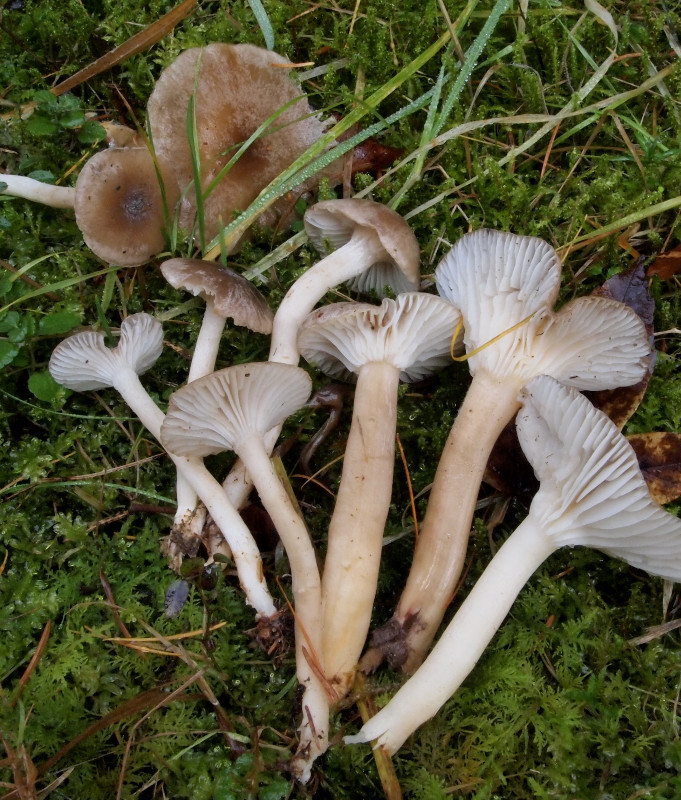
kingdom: Fungi
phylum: Basidiomycota
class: Agaricomycetes
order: Agaricales
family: Hygrophoraceae
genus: Hygrophorus
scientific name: Hygrophorus pustulatus
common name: mørkprikket sneglehat
